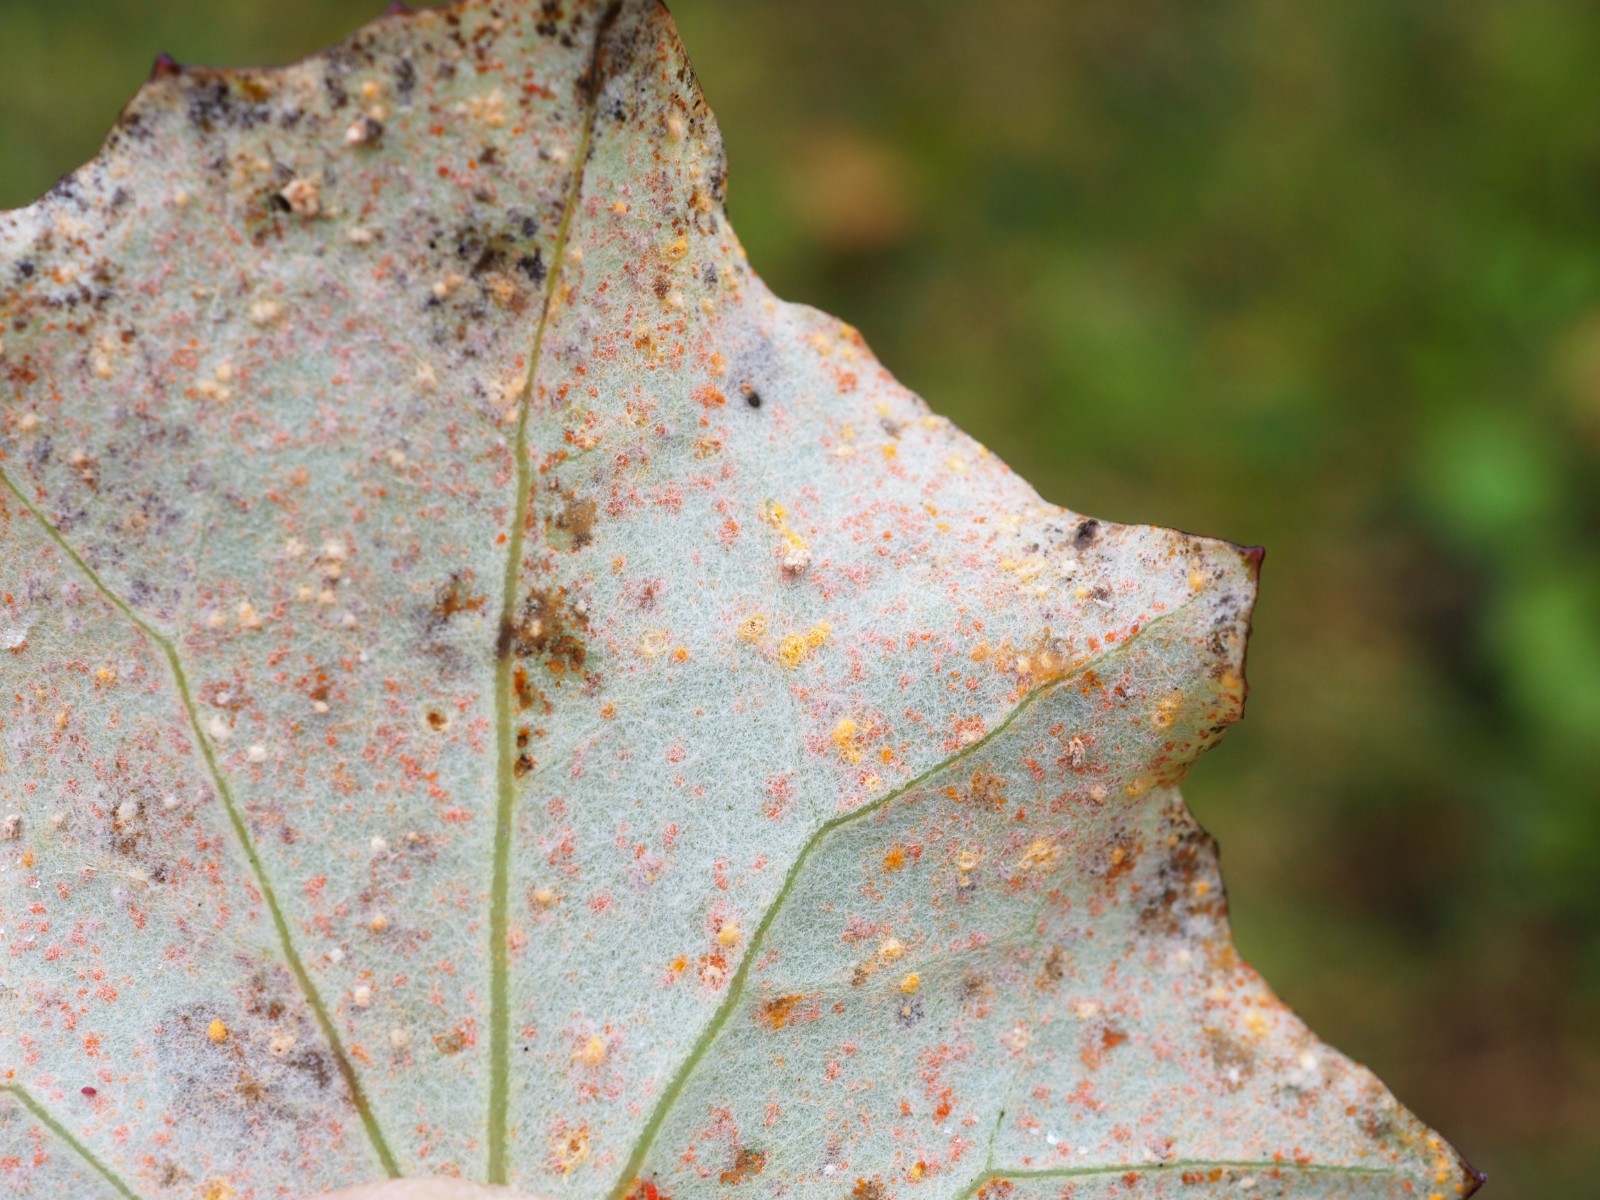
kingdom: Fungi
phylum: Basidiomycota
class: Pucciniomycetes
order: Pucciniales
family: Coleosporiaceae
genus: Coleosporium
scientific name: Coleosporium tussilaginis
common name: almindelig fyrrenålerust
